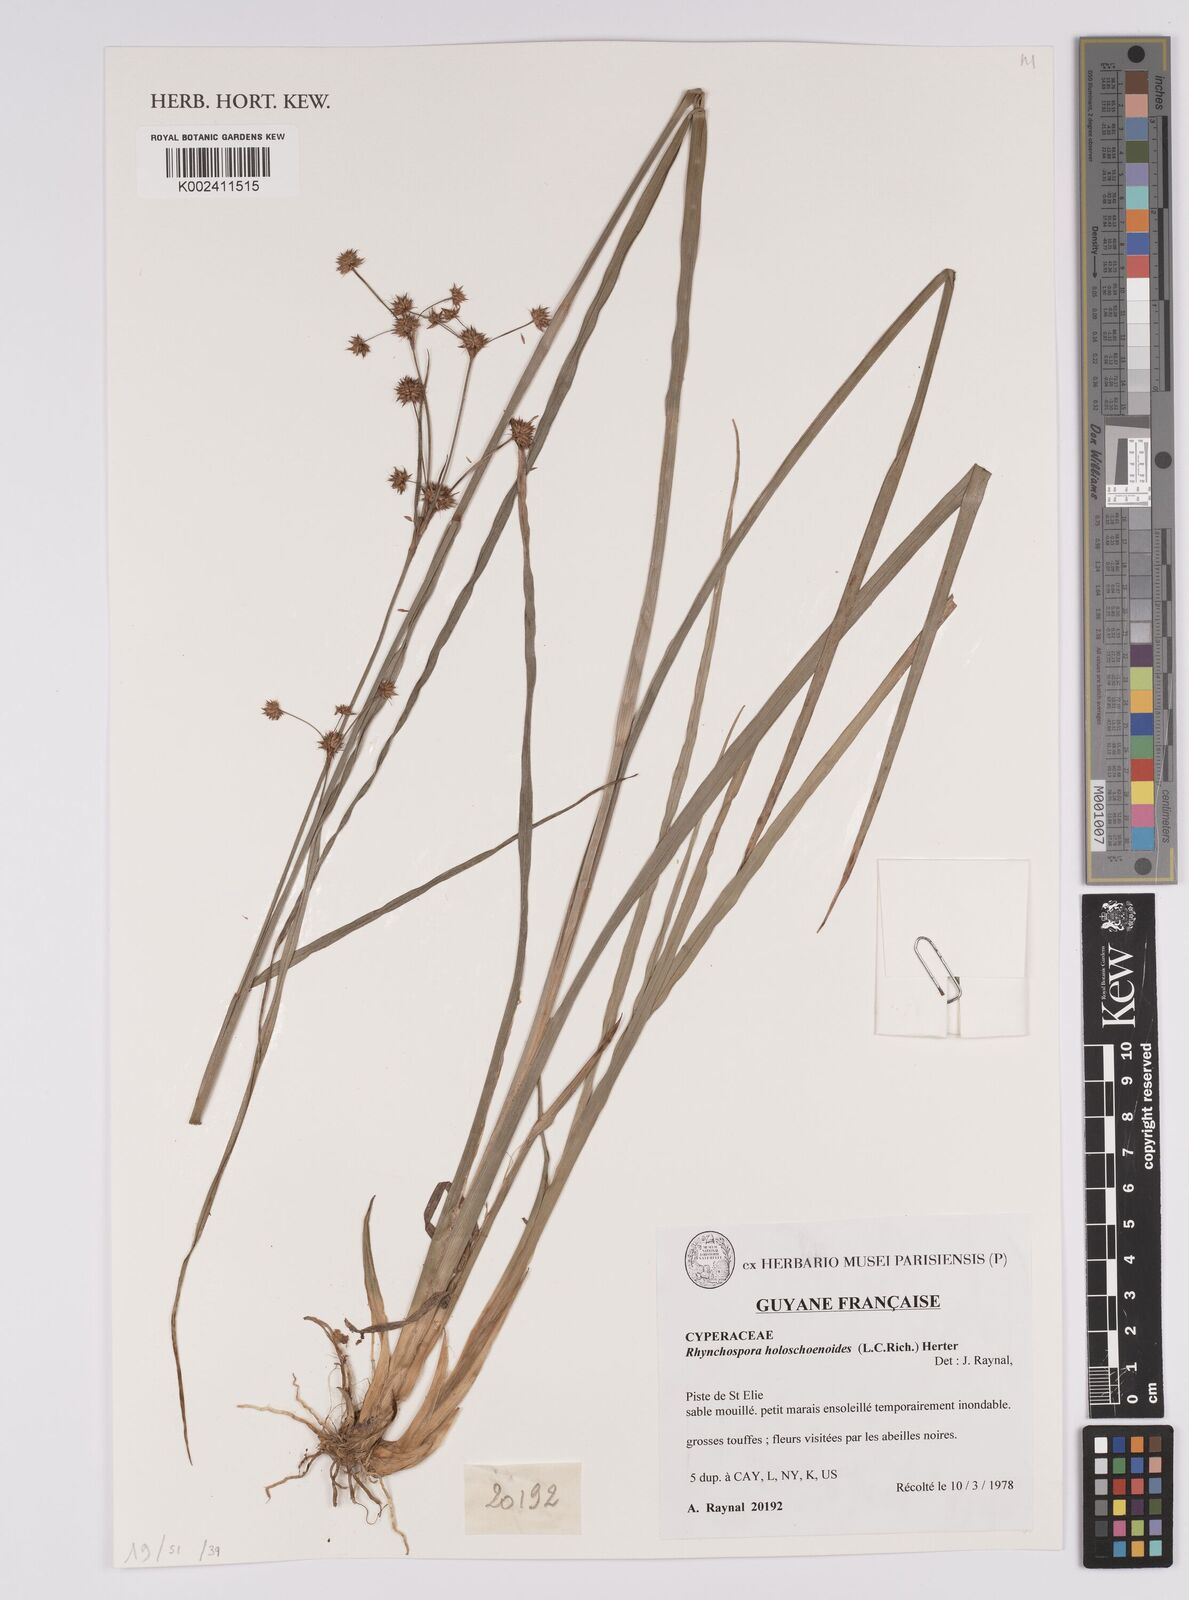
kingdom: Plantae
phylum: Tracheophyta
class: Liliopsida
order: Poales
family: Cyperaceae
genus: Rhynchospora
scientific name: Rhynchospora holoschoenoides
